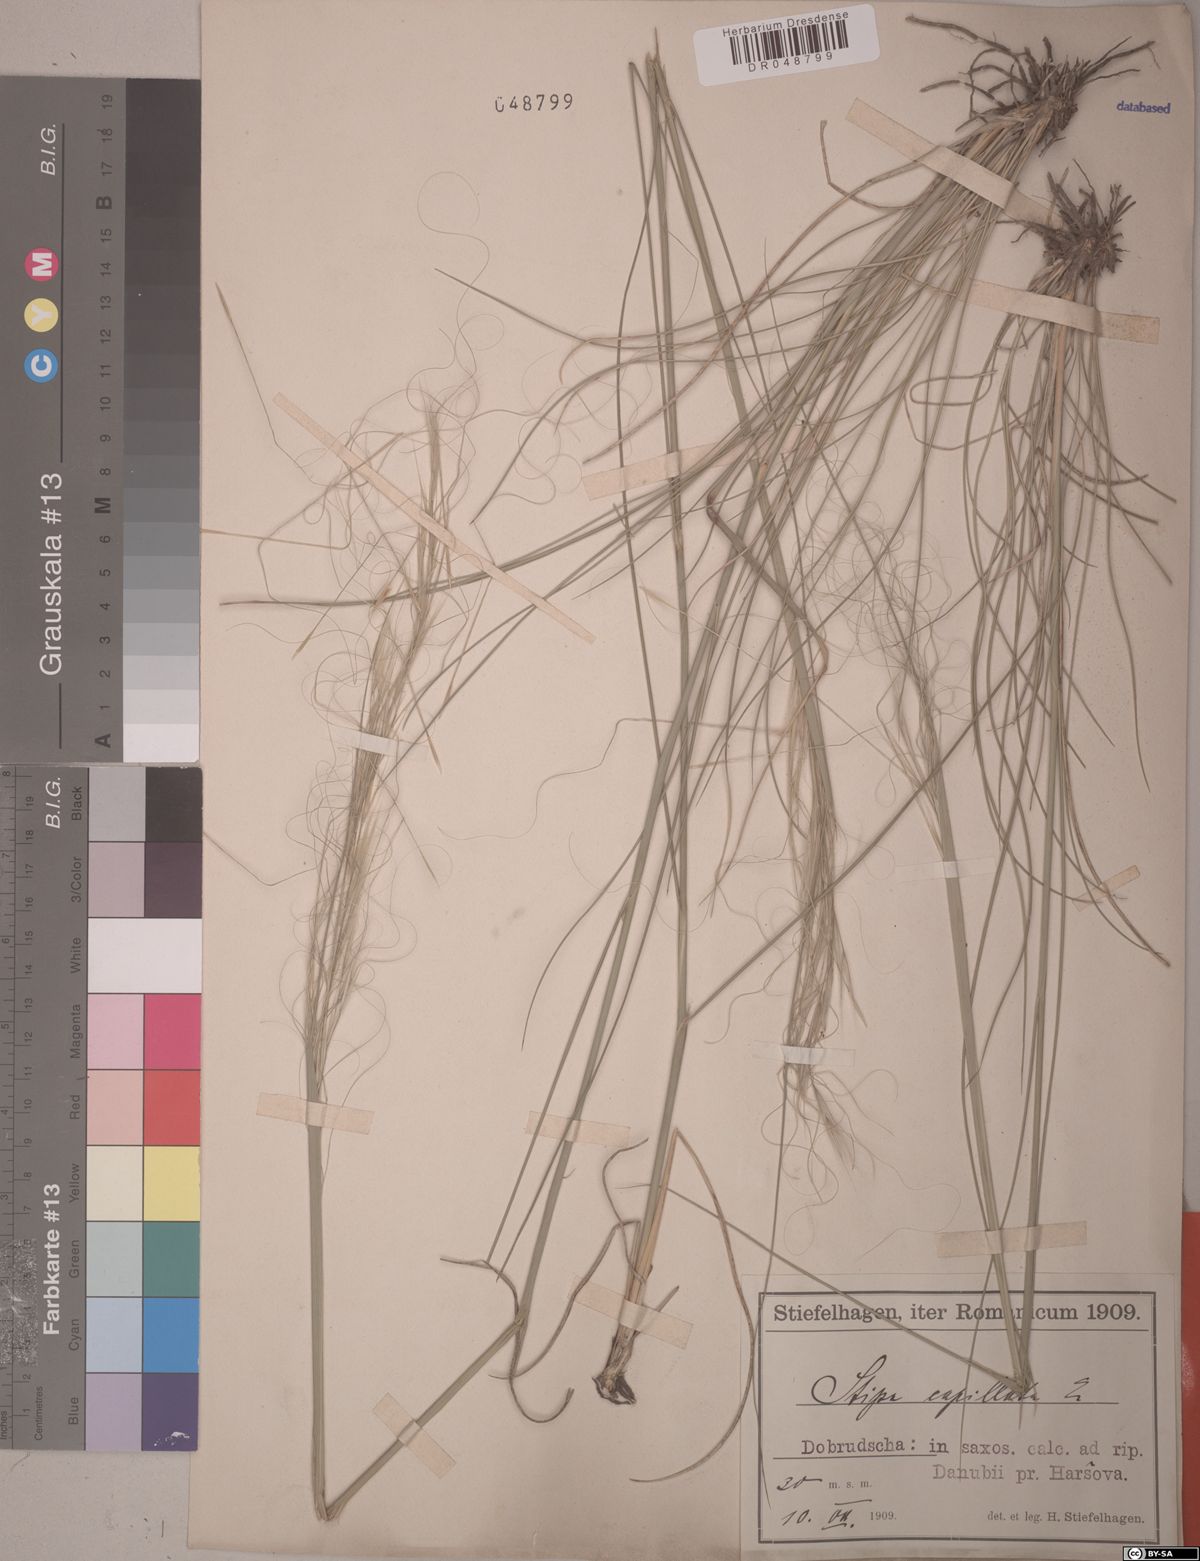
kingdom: Plantae
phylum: Tracheophyta
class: Liliopsida
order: Poales
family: Poaceae
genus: Stipa
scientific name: Stipa capillata
